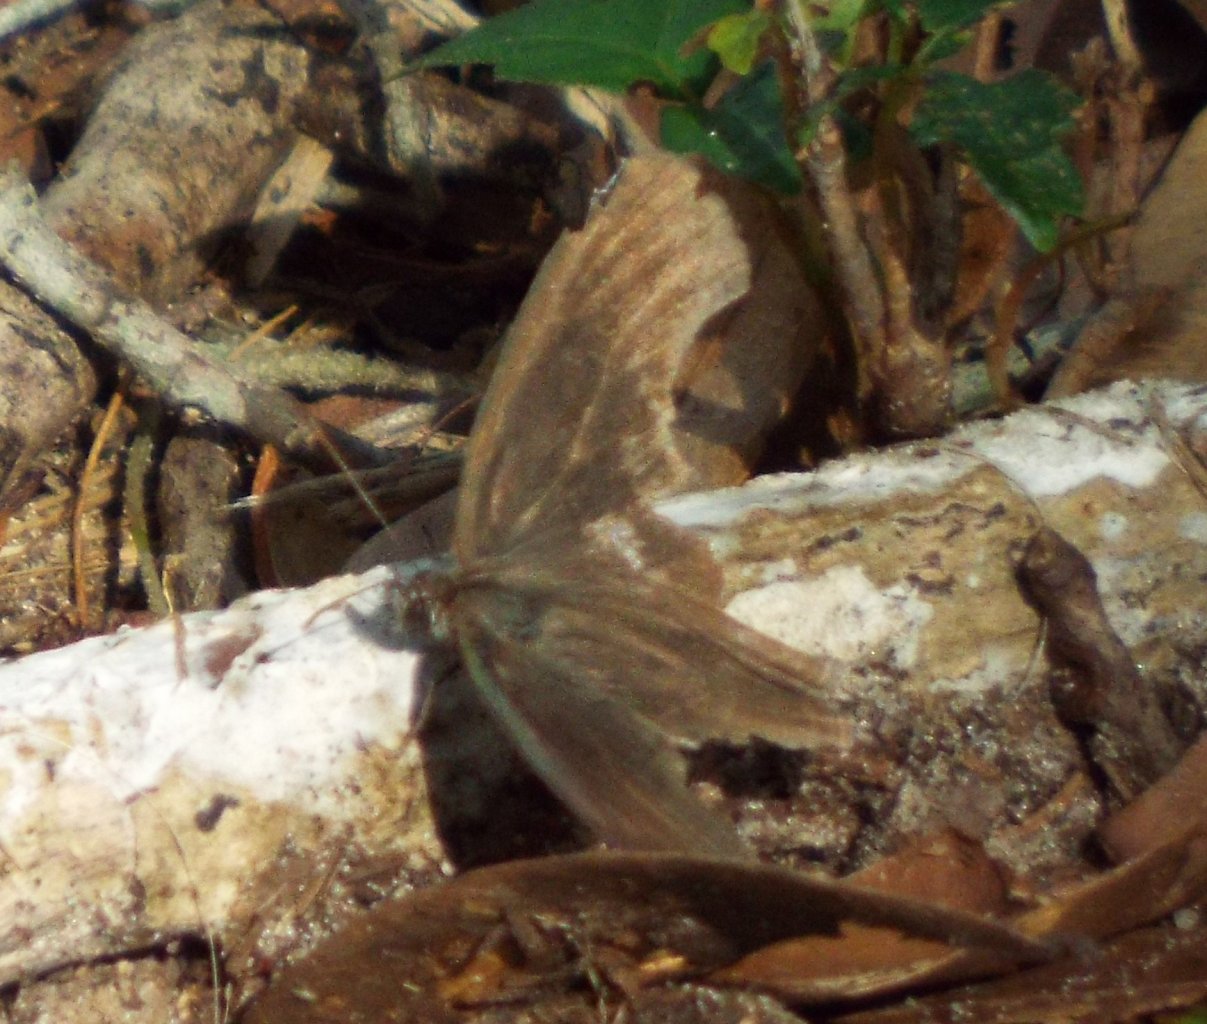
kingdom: Animalia
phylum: Arthropoda
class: Insecta
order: Lepidoptera
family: Nymphalidae
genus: Hermeuptychia
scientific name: Hermeuptychia hermes
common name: Carolina Satyr
